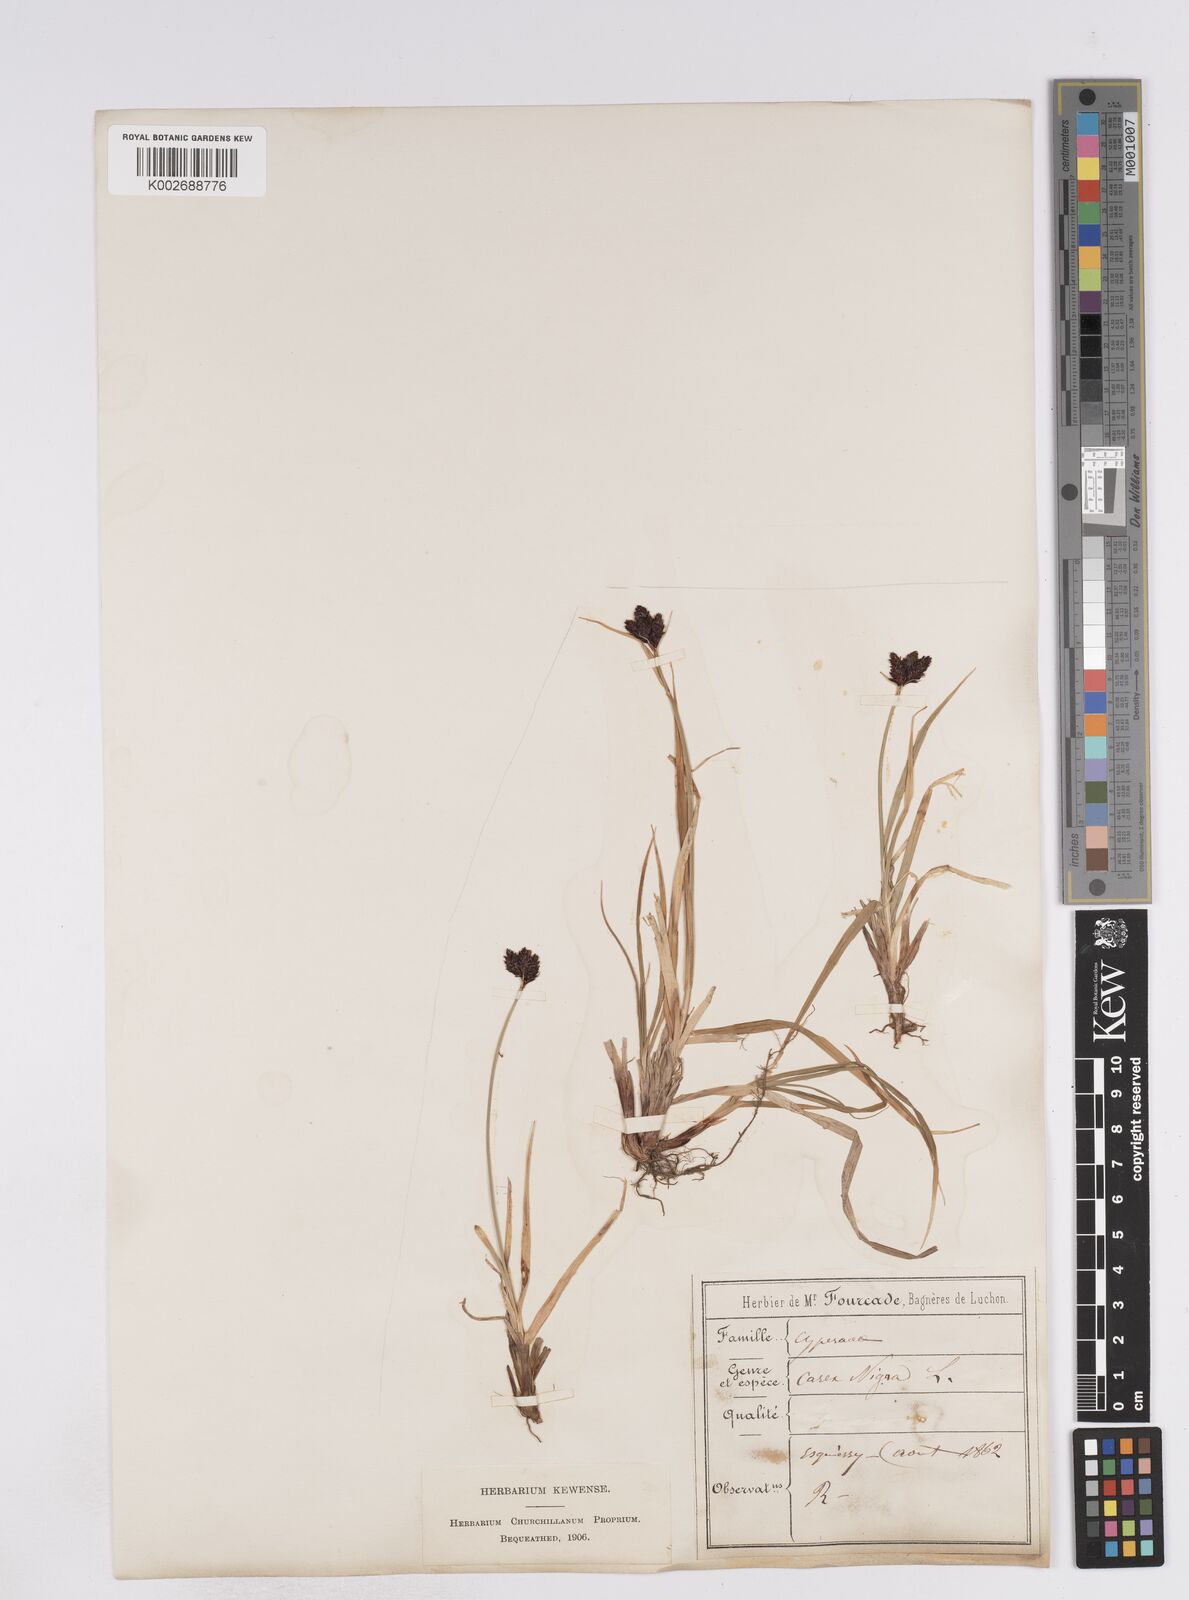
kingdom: Plantae
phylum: Tracheophyta
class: Liliopsida
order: Poales
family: Cyperaceae
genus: Carex
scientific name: Carex parviflora
